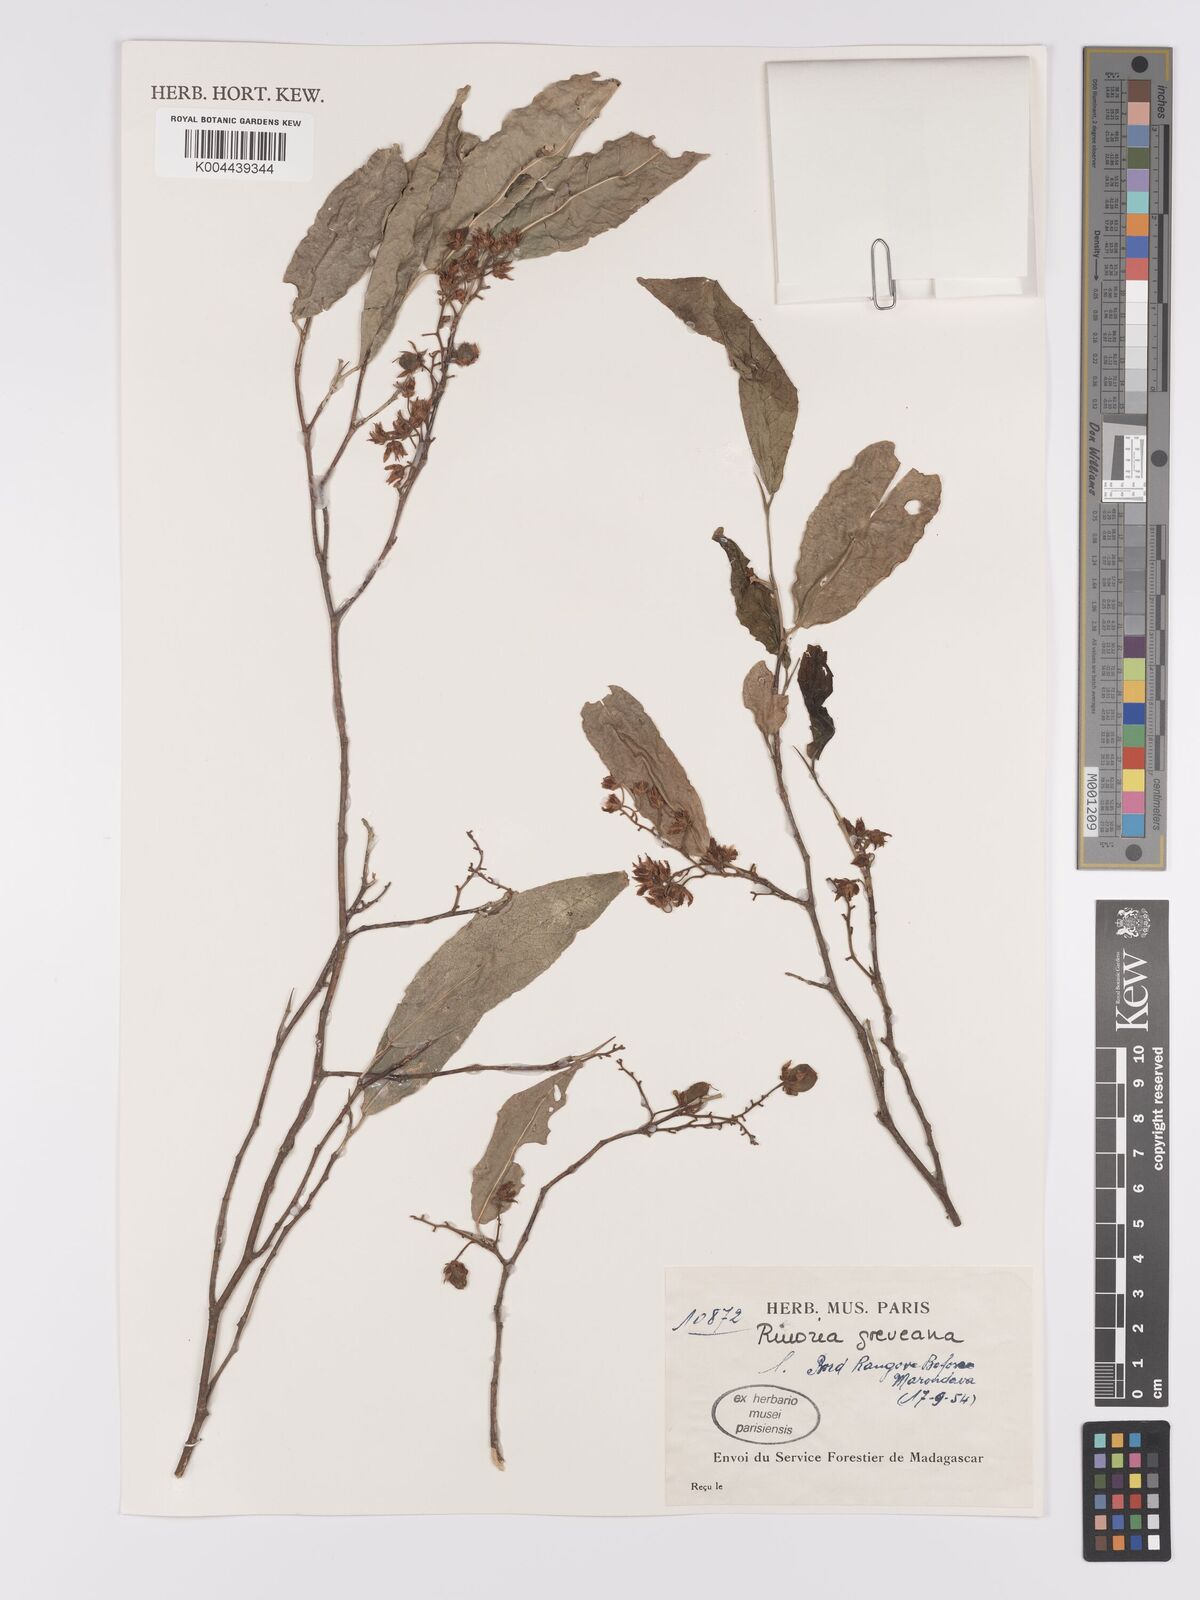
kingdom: Plantae
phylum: Tracheophyta
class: Magnoliopsida
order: Malpighiales
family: Violaceae
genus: Rinorea
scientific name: Rinorea greveana
